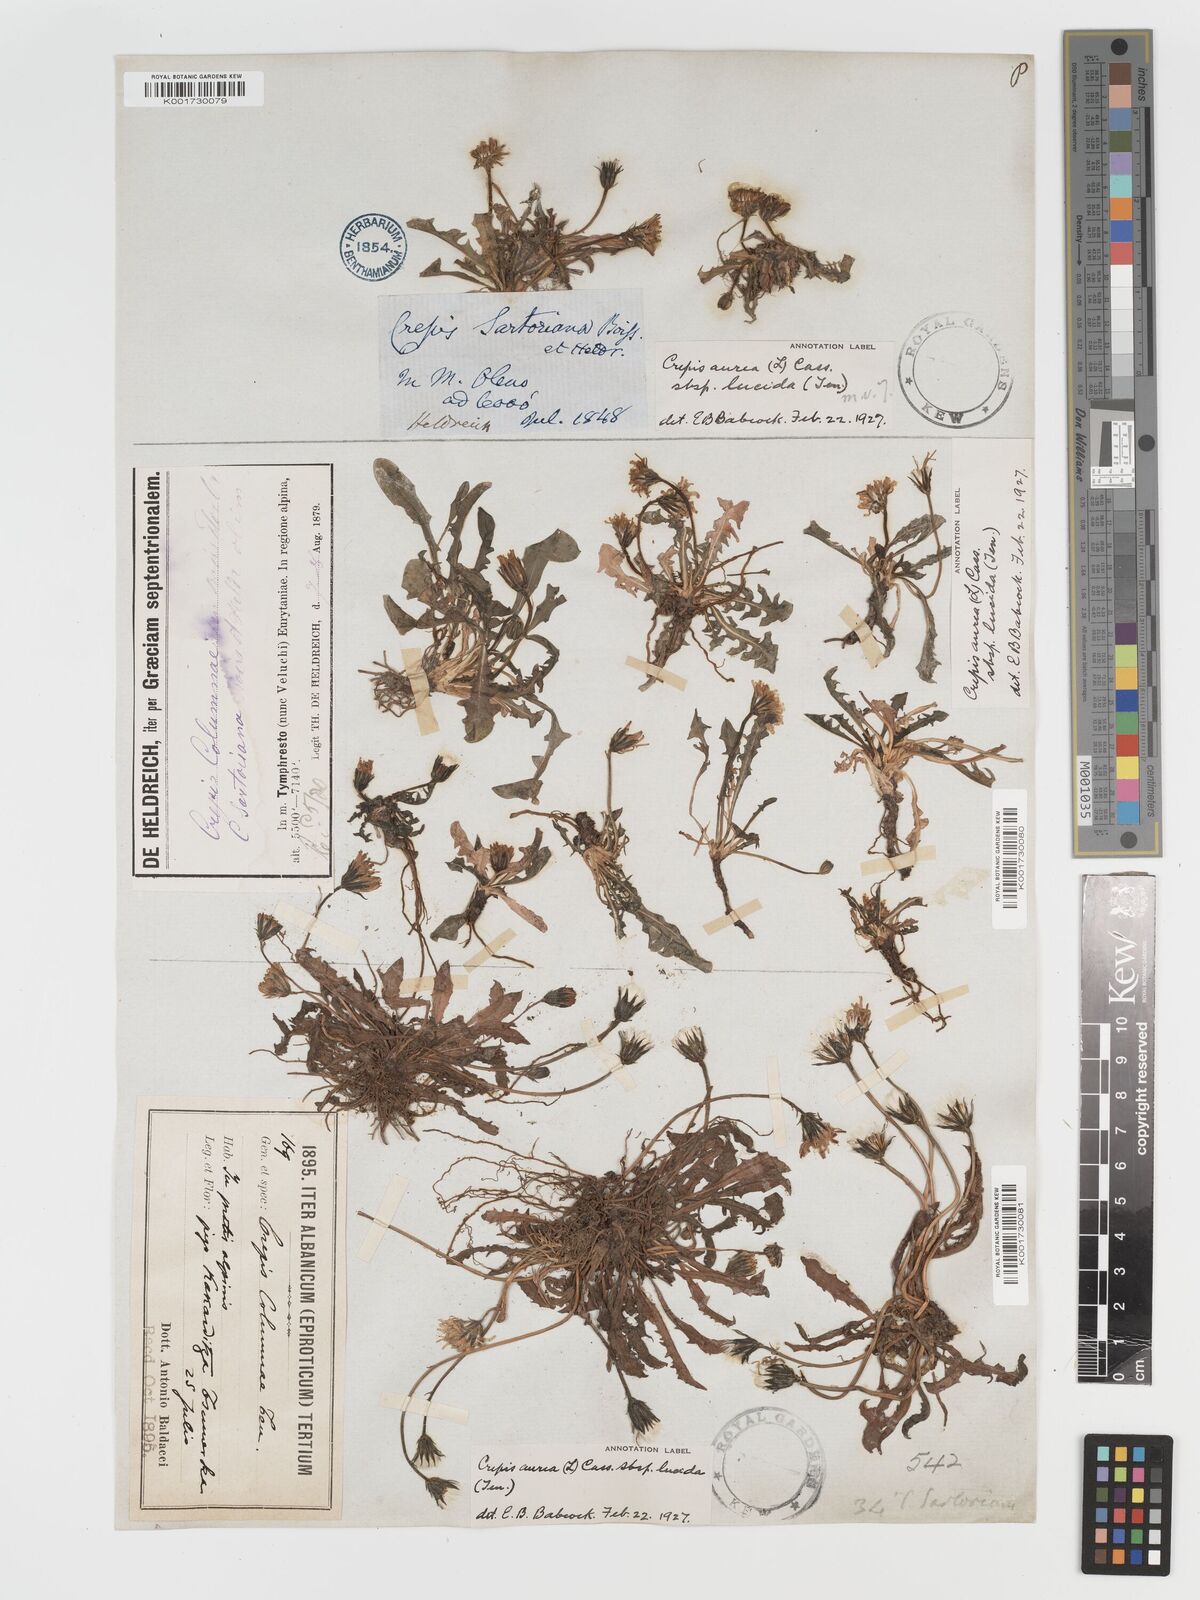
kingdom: Plantae
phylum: Tracheophyta
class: Magnoliopsida
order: Asterales
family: Asteraceae
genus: Crepis
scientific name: Crepis aurea
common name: Golden hawk's-beard
